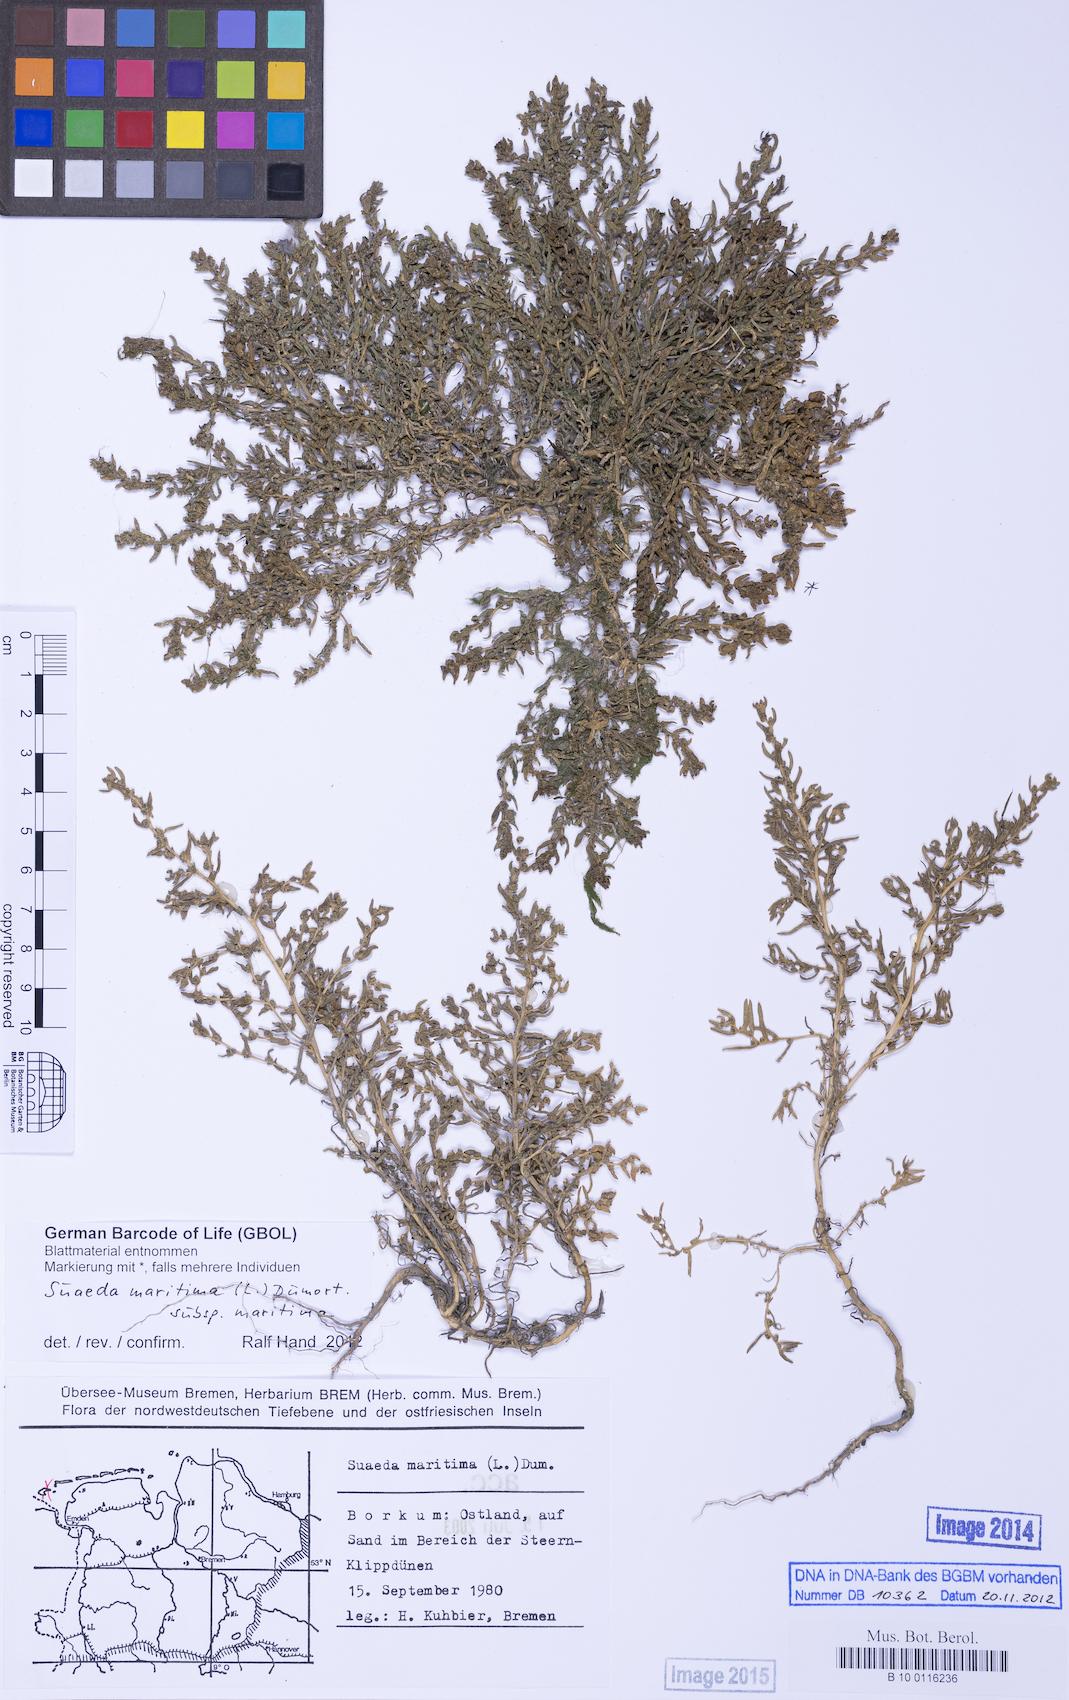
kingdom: Plantae
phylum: Tracheophyta
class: Magnoliopsida
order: Caryophyllales
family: Amaranthaceae
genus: Suaeda
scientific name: Suaeda maritima
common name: Annual sea-blite
